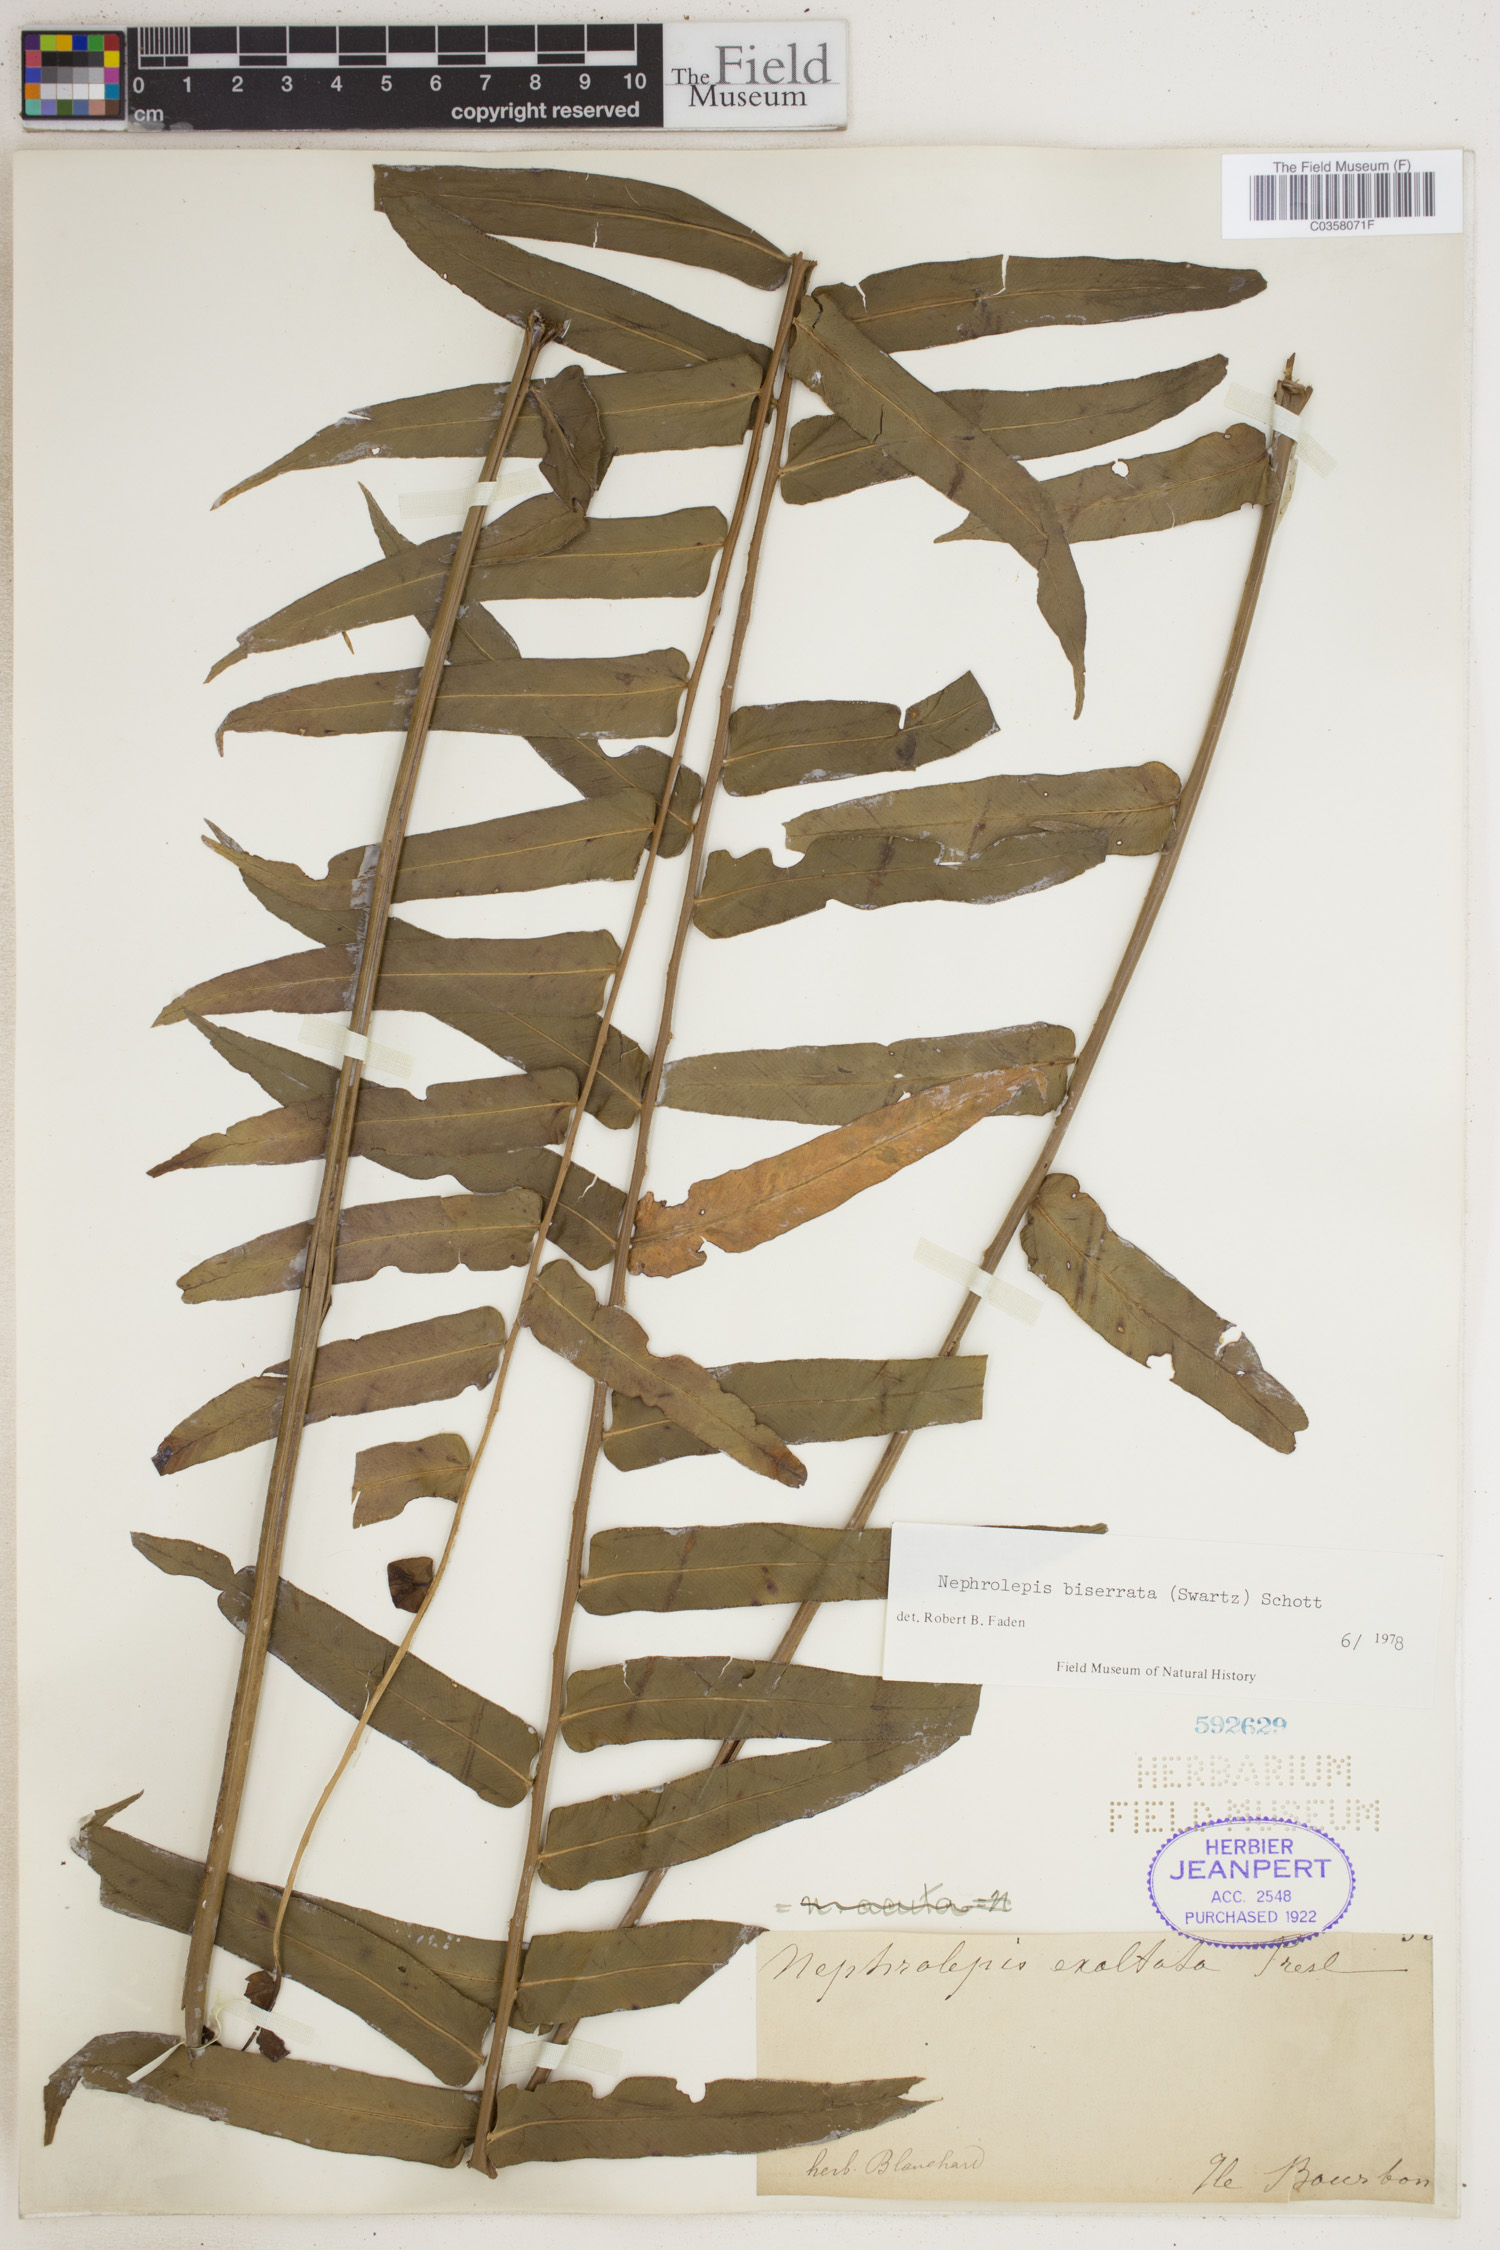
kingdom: Plantae
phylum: Tracheophyta
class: Polypodiopsida
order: Polypodiales
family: Nephrolepidaceae
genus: Nephrolepis
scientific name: Nephrolepis biserrata
